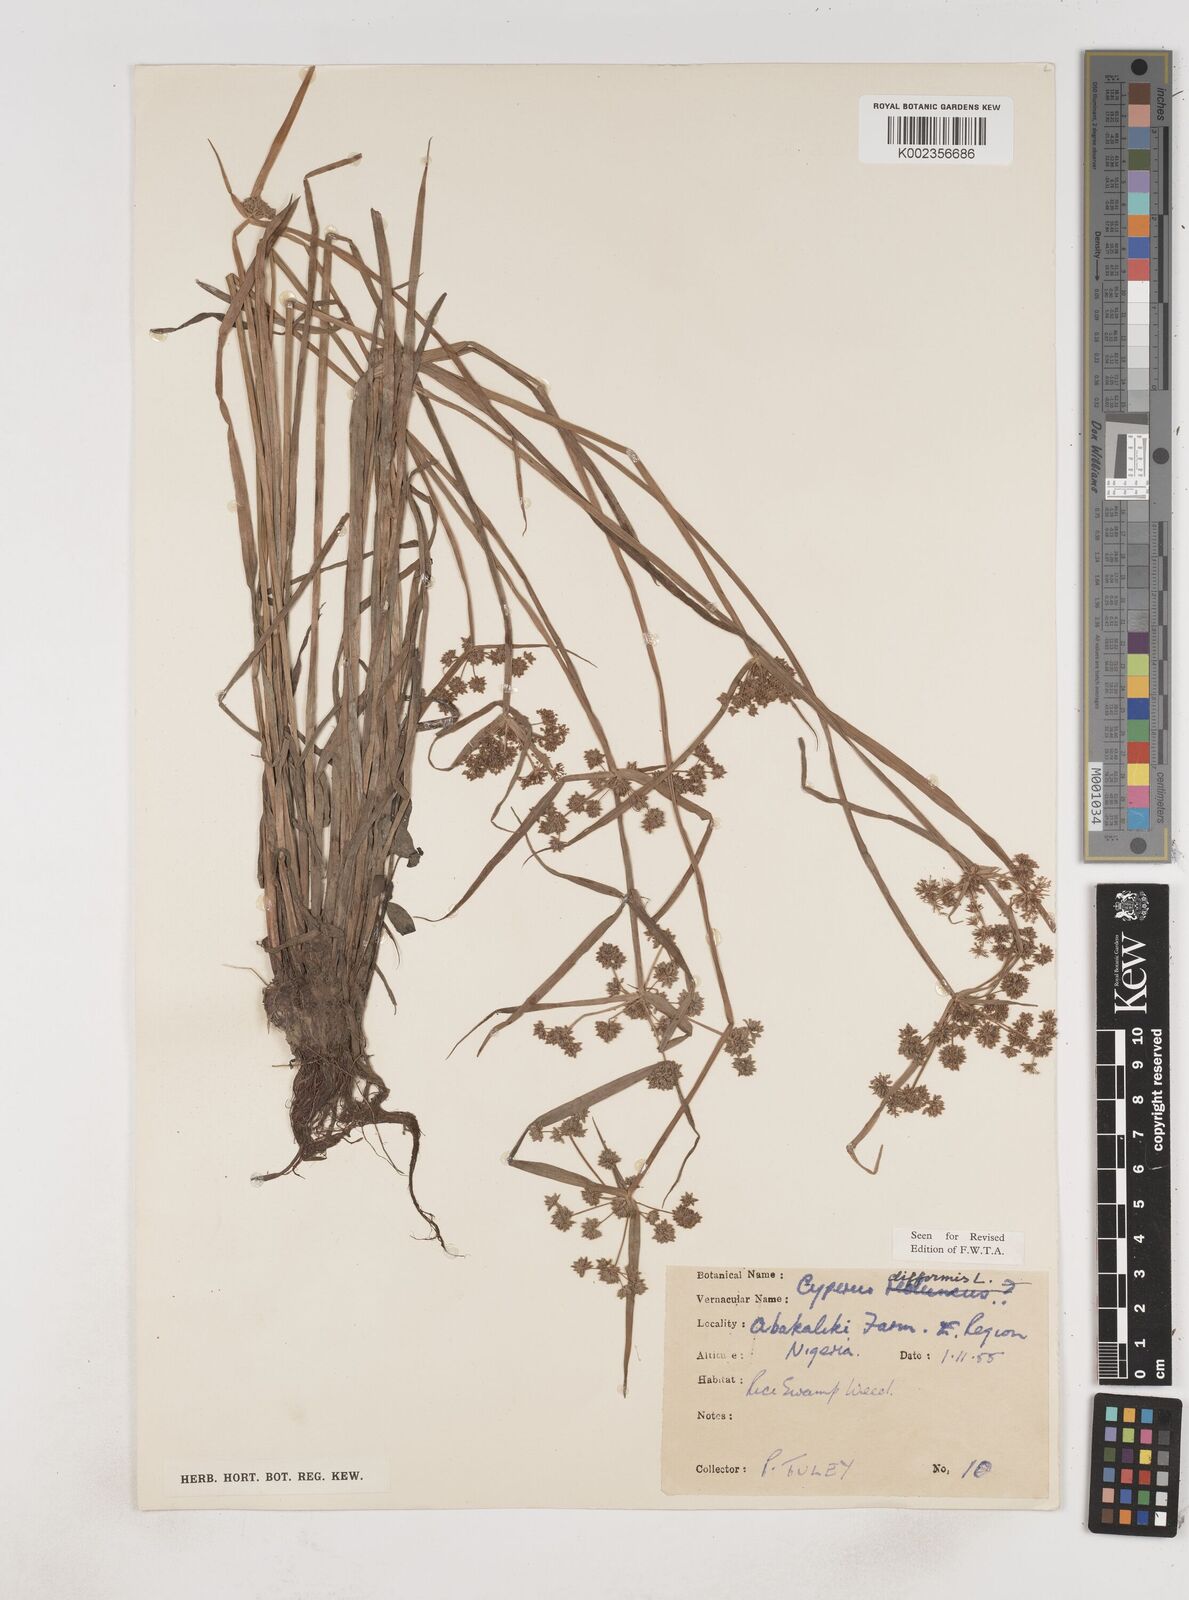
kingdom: Plantae
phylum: Tracheophyta
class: Liliopsida
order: Poales
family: Cyperaceae
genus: Cyperus
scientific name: Cyperus difformis
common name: Variable flatsedge
